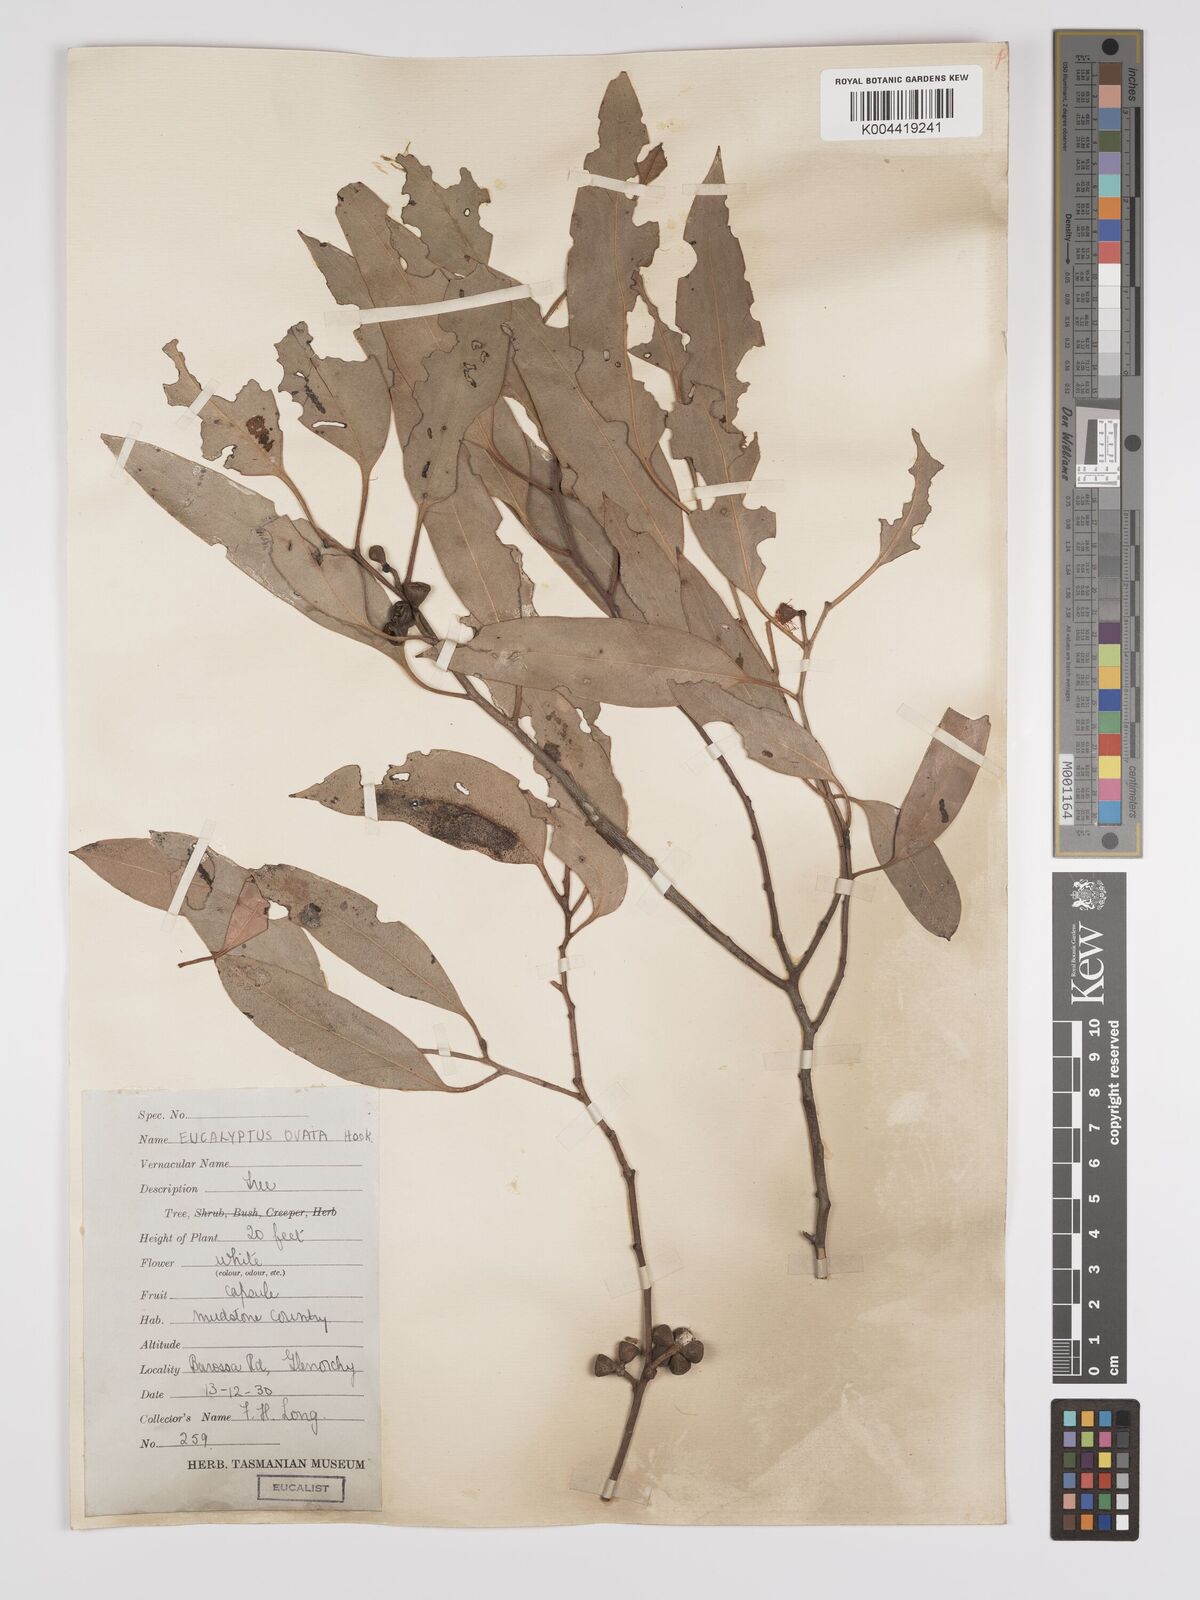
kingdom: Plantae
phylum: Tracheophyta
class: Magnoliopsida
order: Myrtales
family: Myrtaceae
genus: Eucalyptus
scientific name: Eucalyptus ovata
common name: Black-gum
